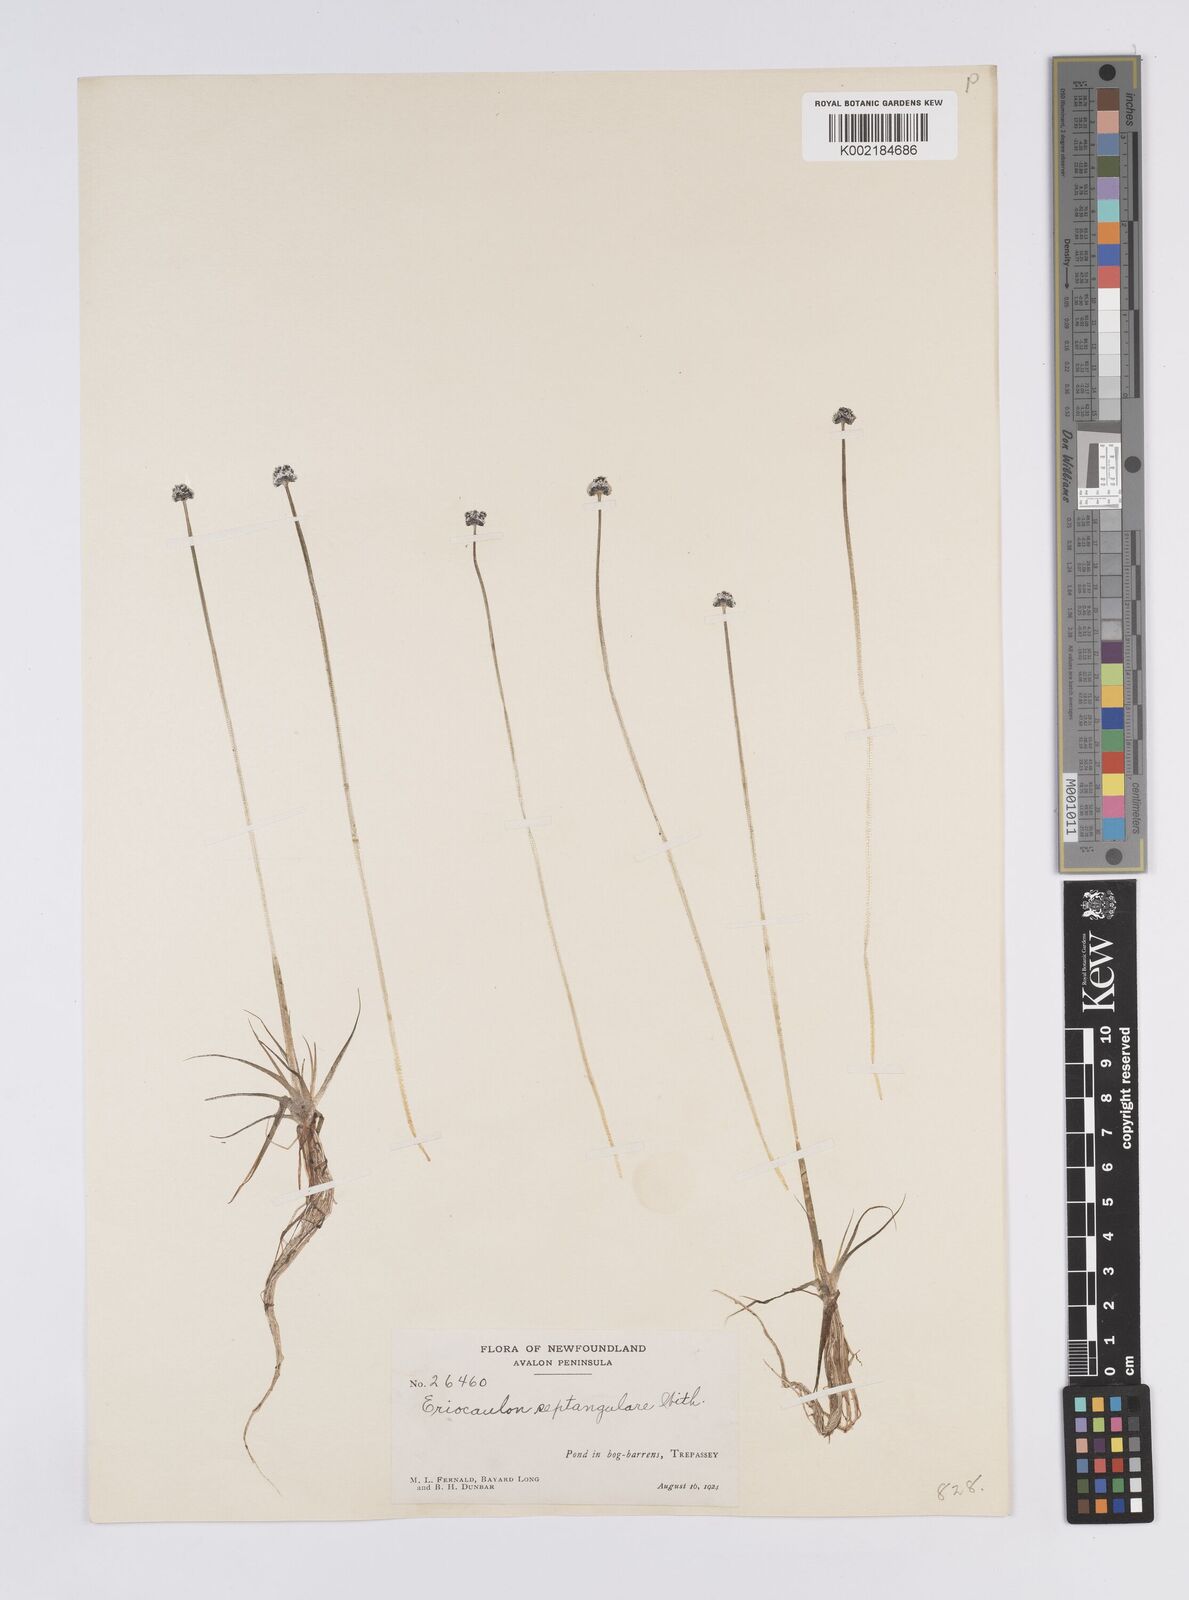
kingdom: Plantae
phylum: Tracheophyta
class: Liliopsida
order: Poales
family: Eriocaulaceae
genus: Eriocaulon
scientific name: Eriocaulon aquaticum
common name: Pipewort
